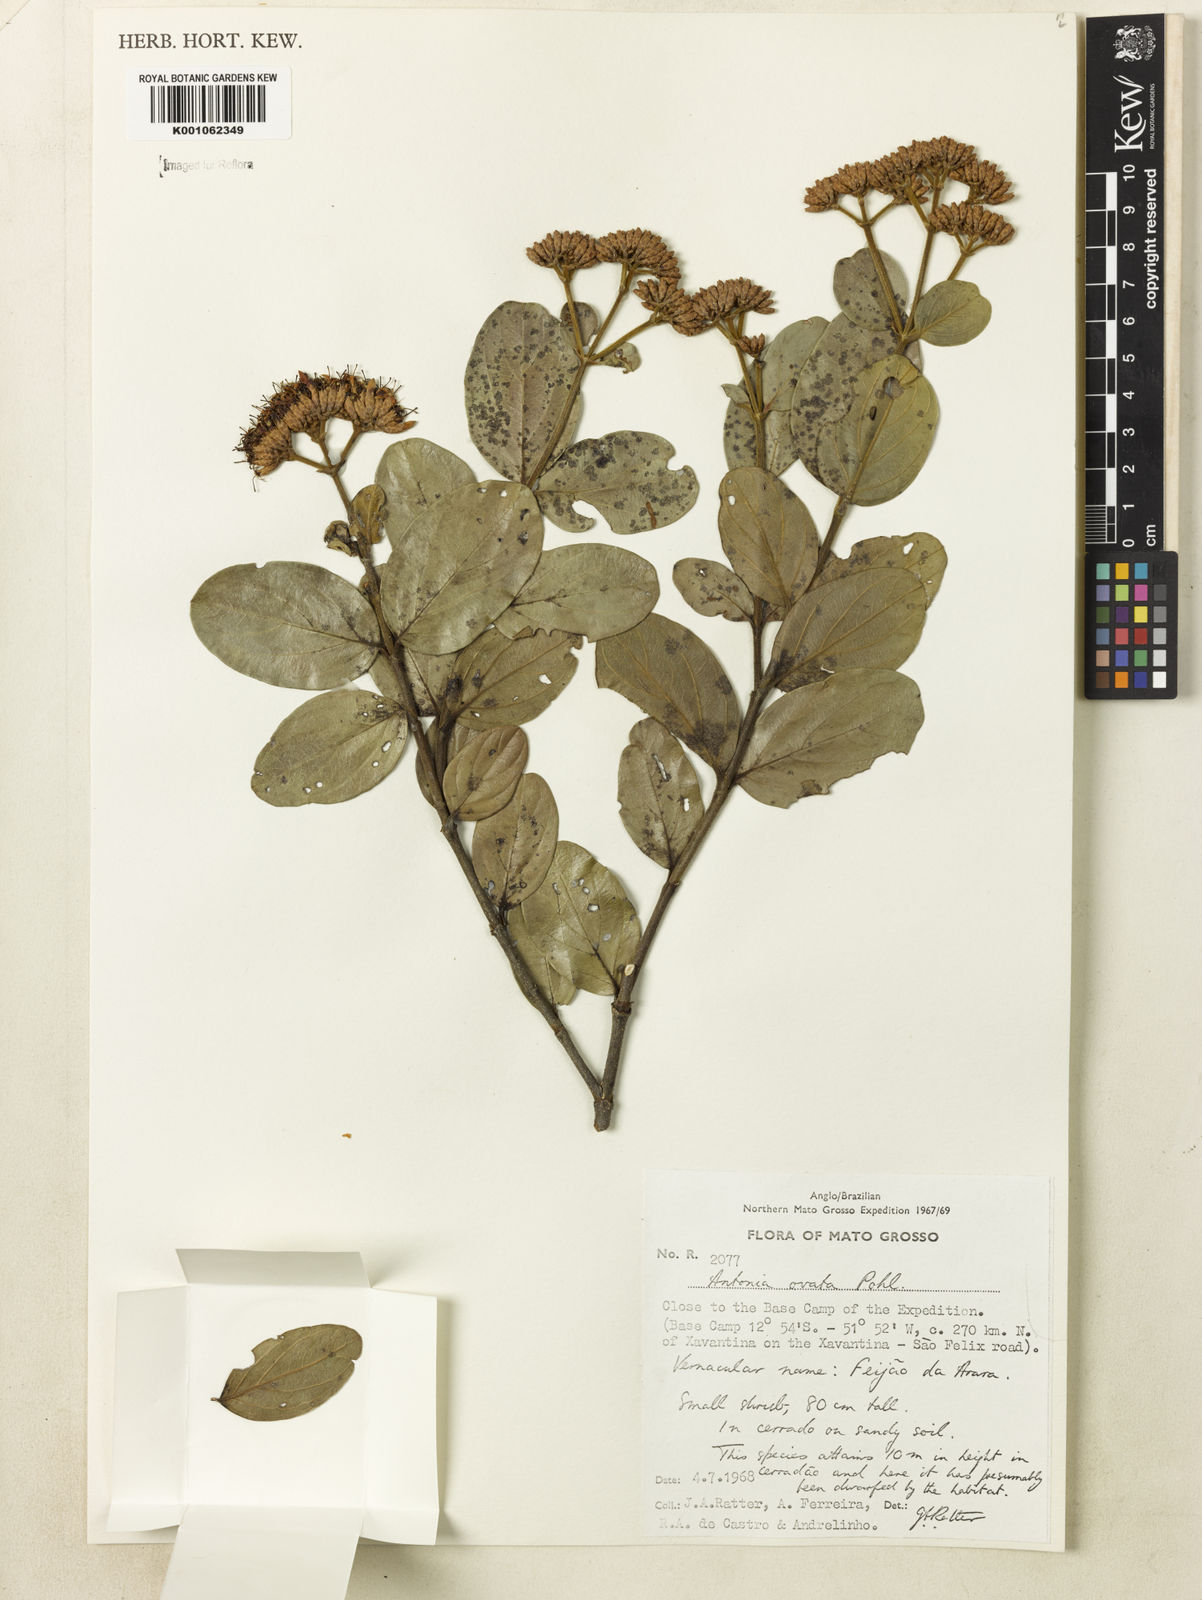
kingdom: Plantae
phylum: Tracheophyta
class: Magnoliopsida
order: Gentianales
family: Loganiaceae
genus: Antonia
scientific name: Antonia ovata
